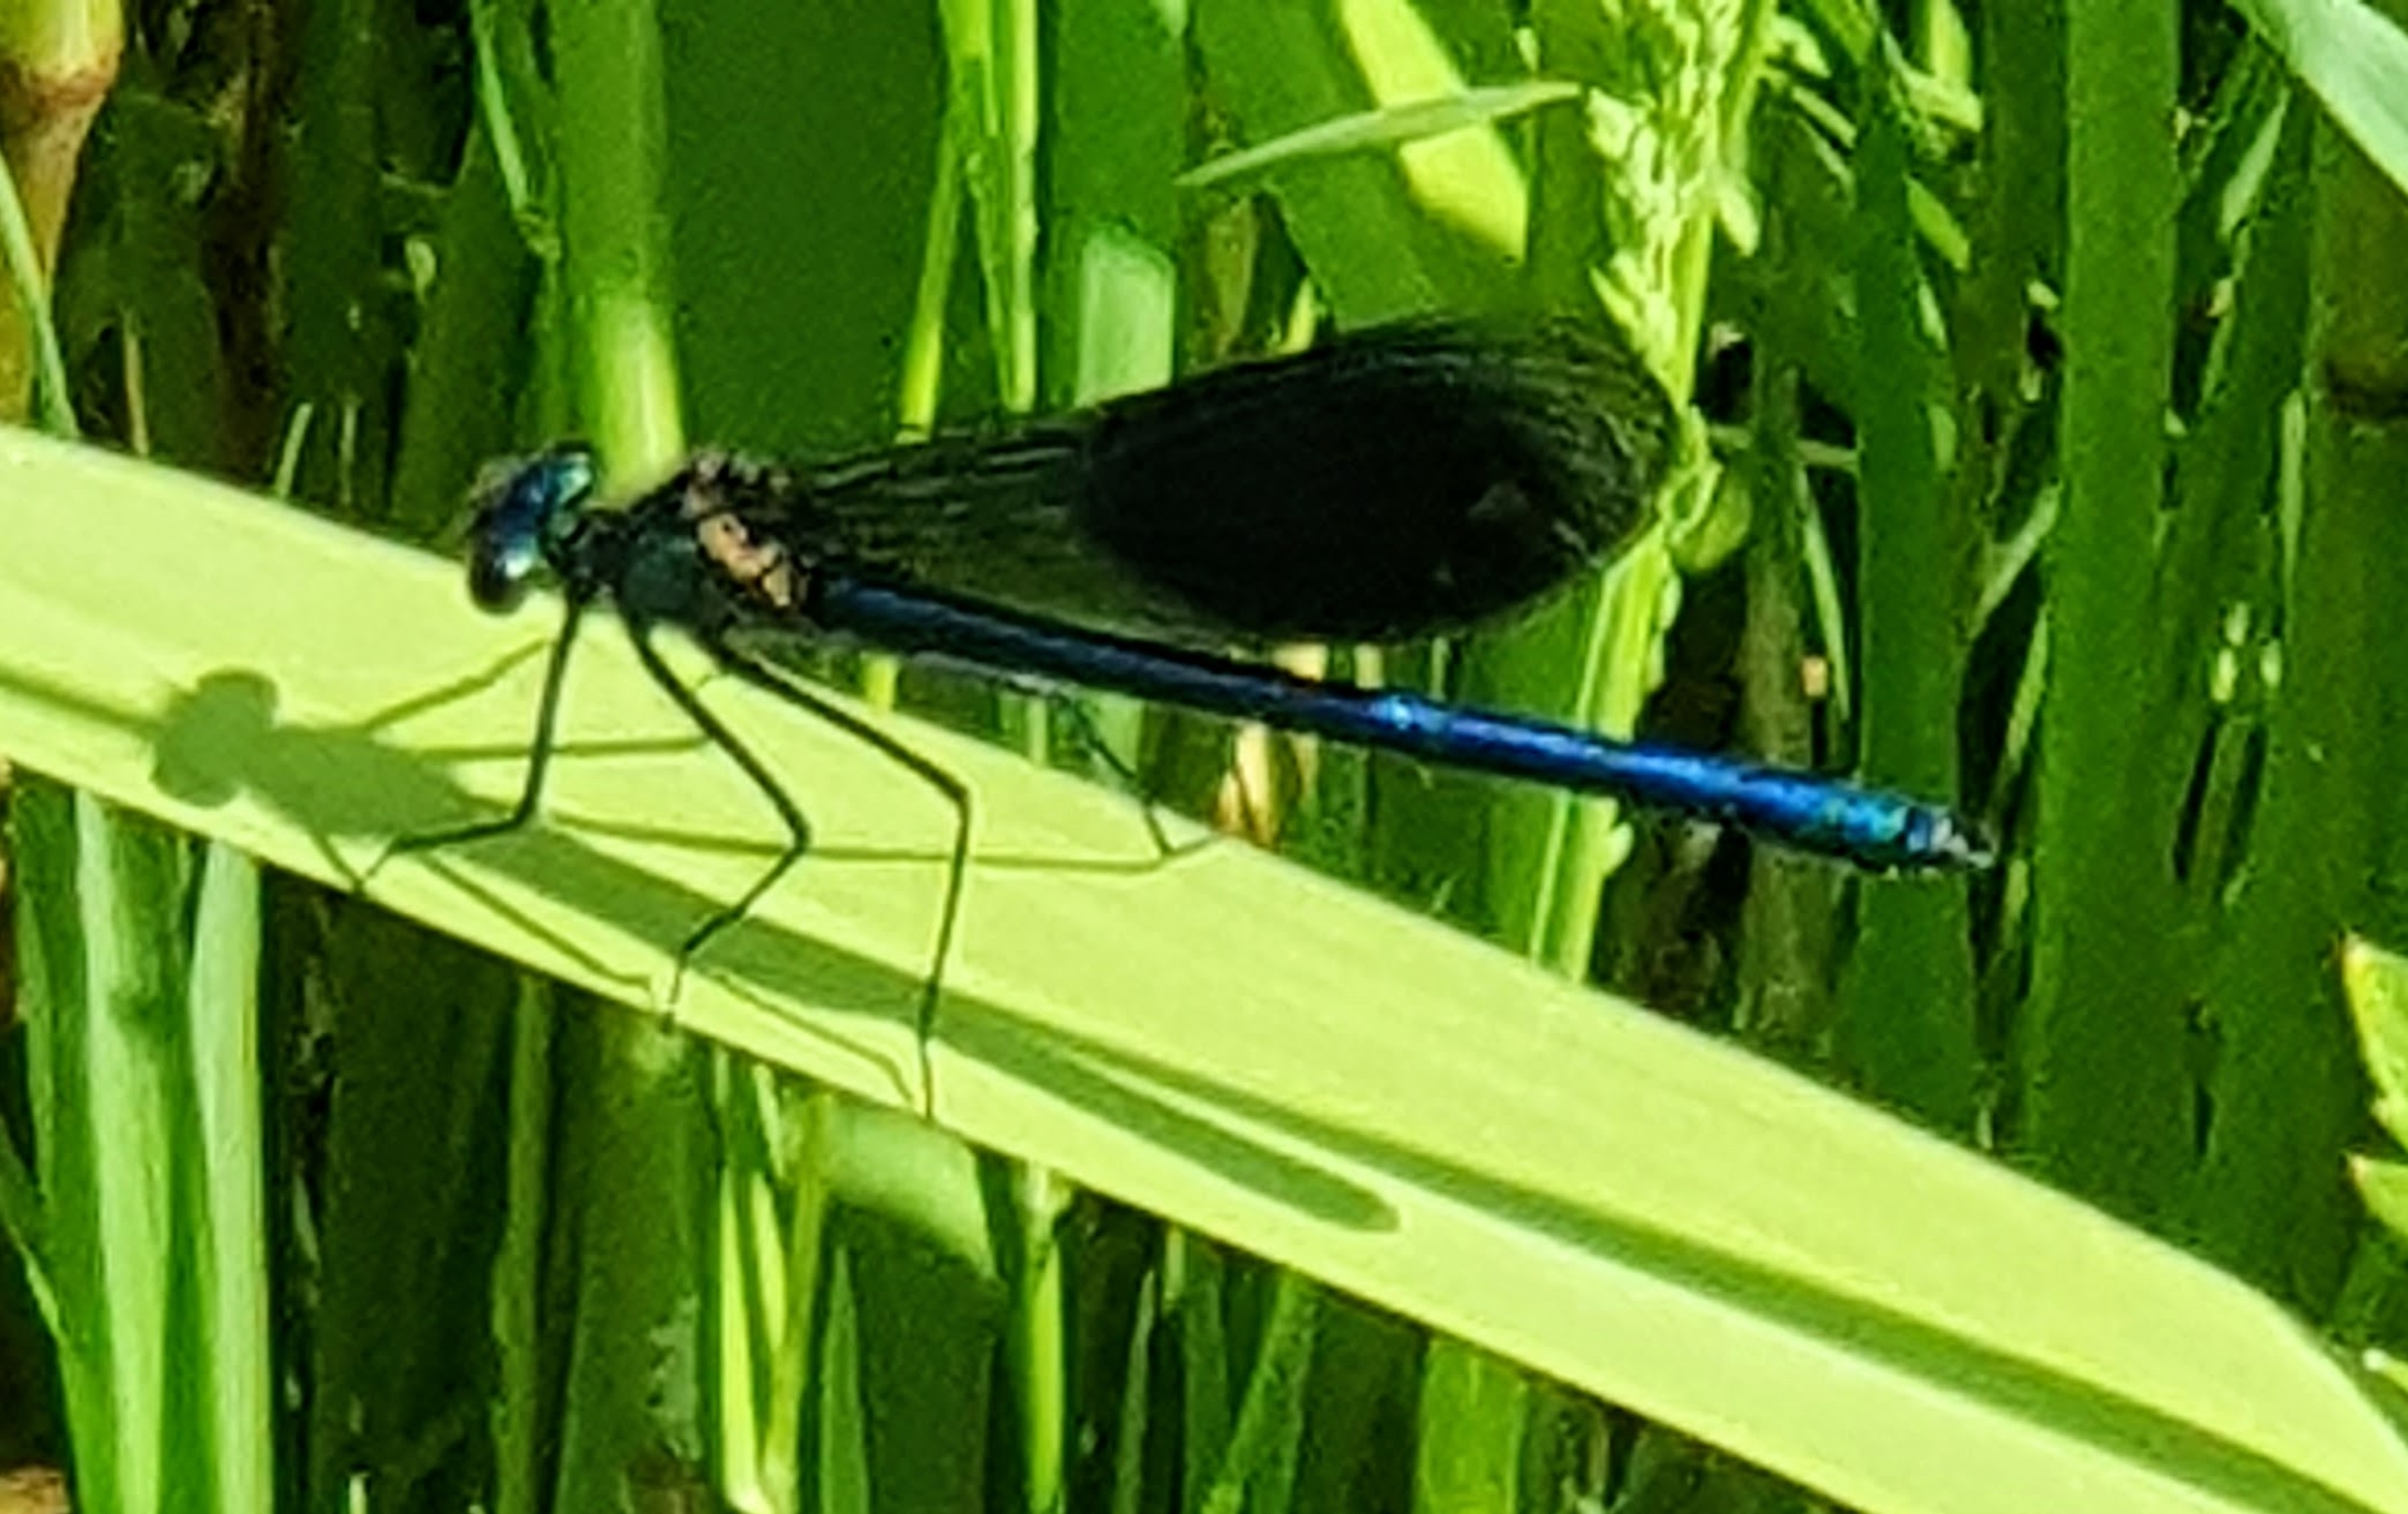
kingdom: Animalia
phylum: Arthropoda
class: Insecta
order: Odonata
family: Calopterygidae
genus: Calopteryx
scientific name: Calopteryx splendens
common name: Blåbåndet pragtvandnymfe
